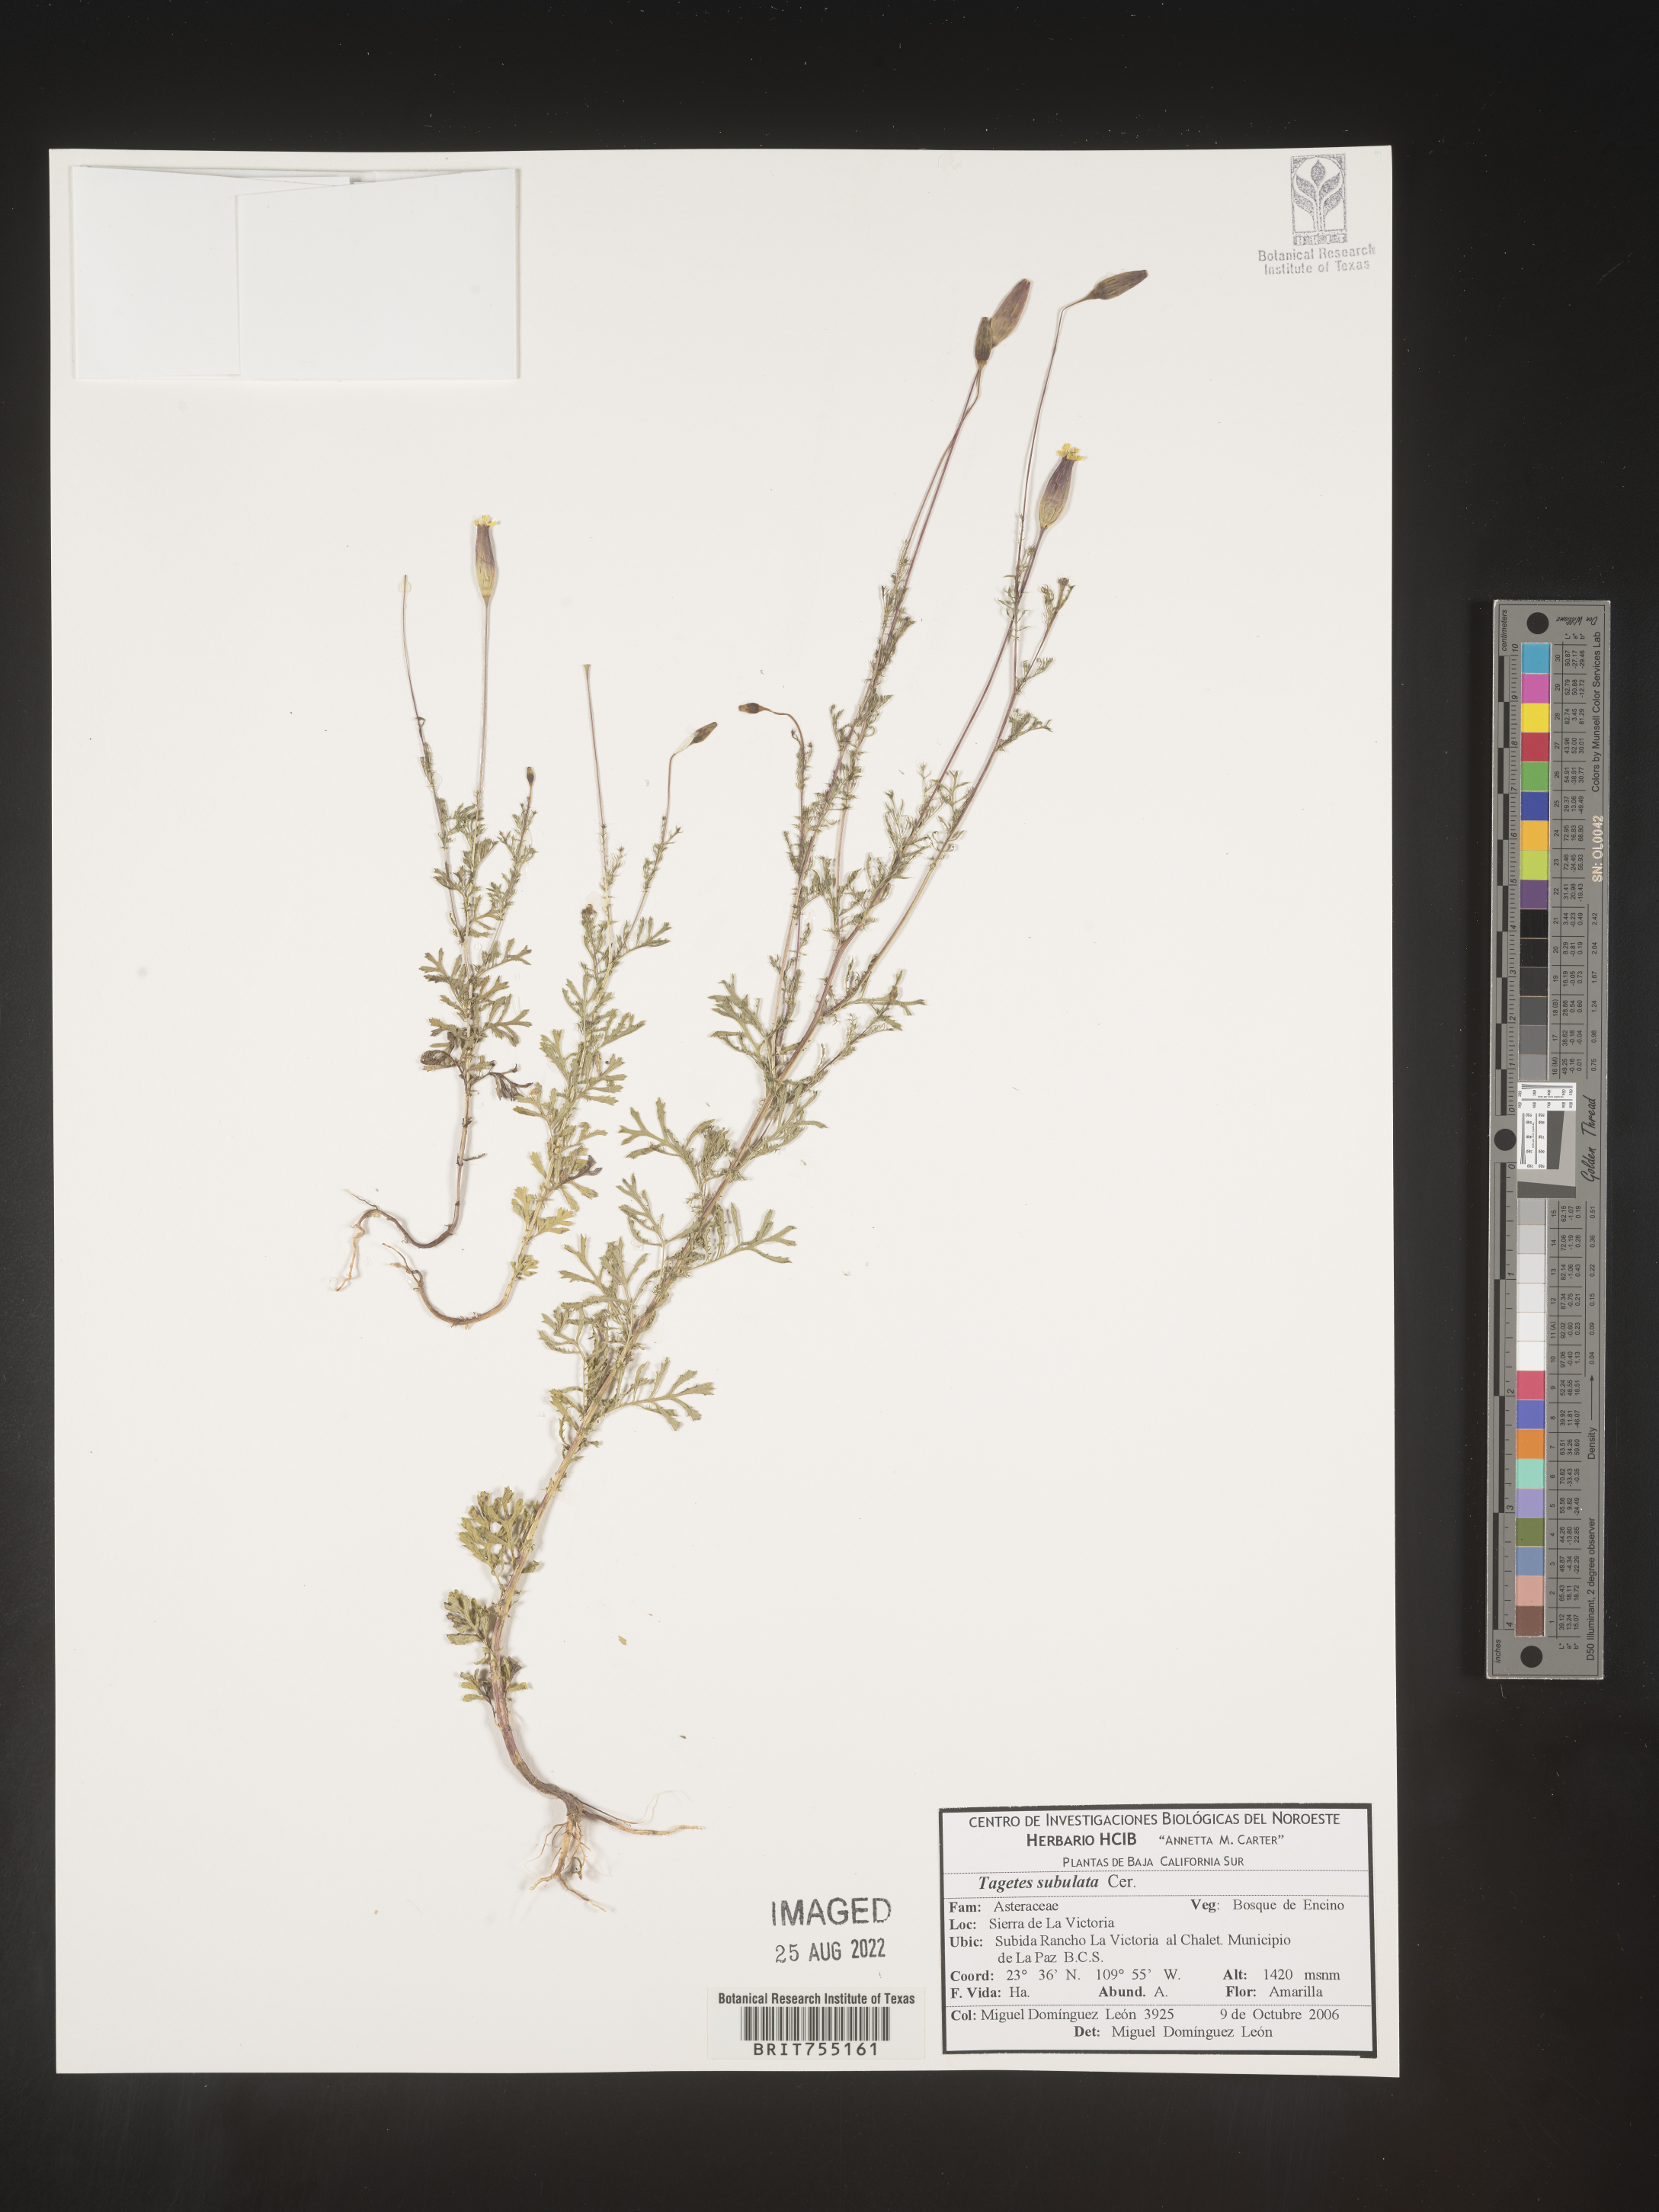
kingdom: Plantae
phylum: Tracheophyta
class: Magnoliopsida
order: Asterales
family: Asteraceae
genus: Tagetes
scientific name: Tagetes
